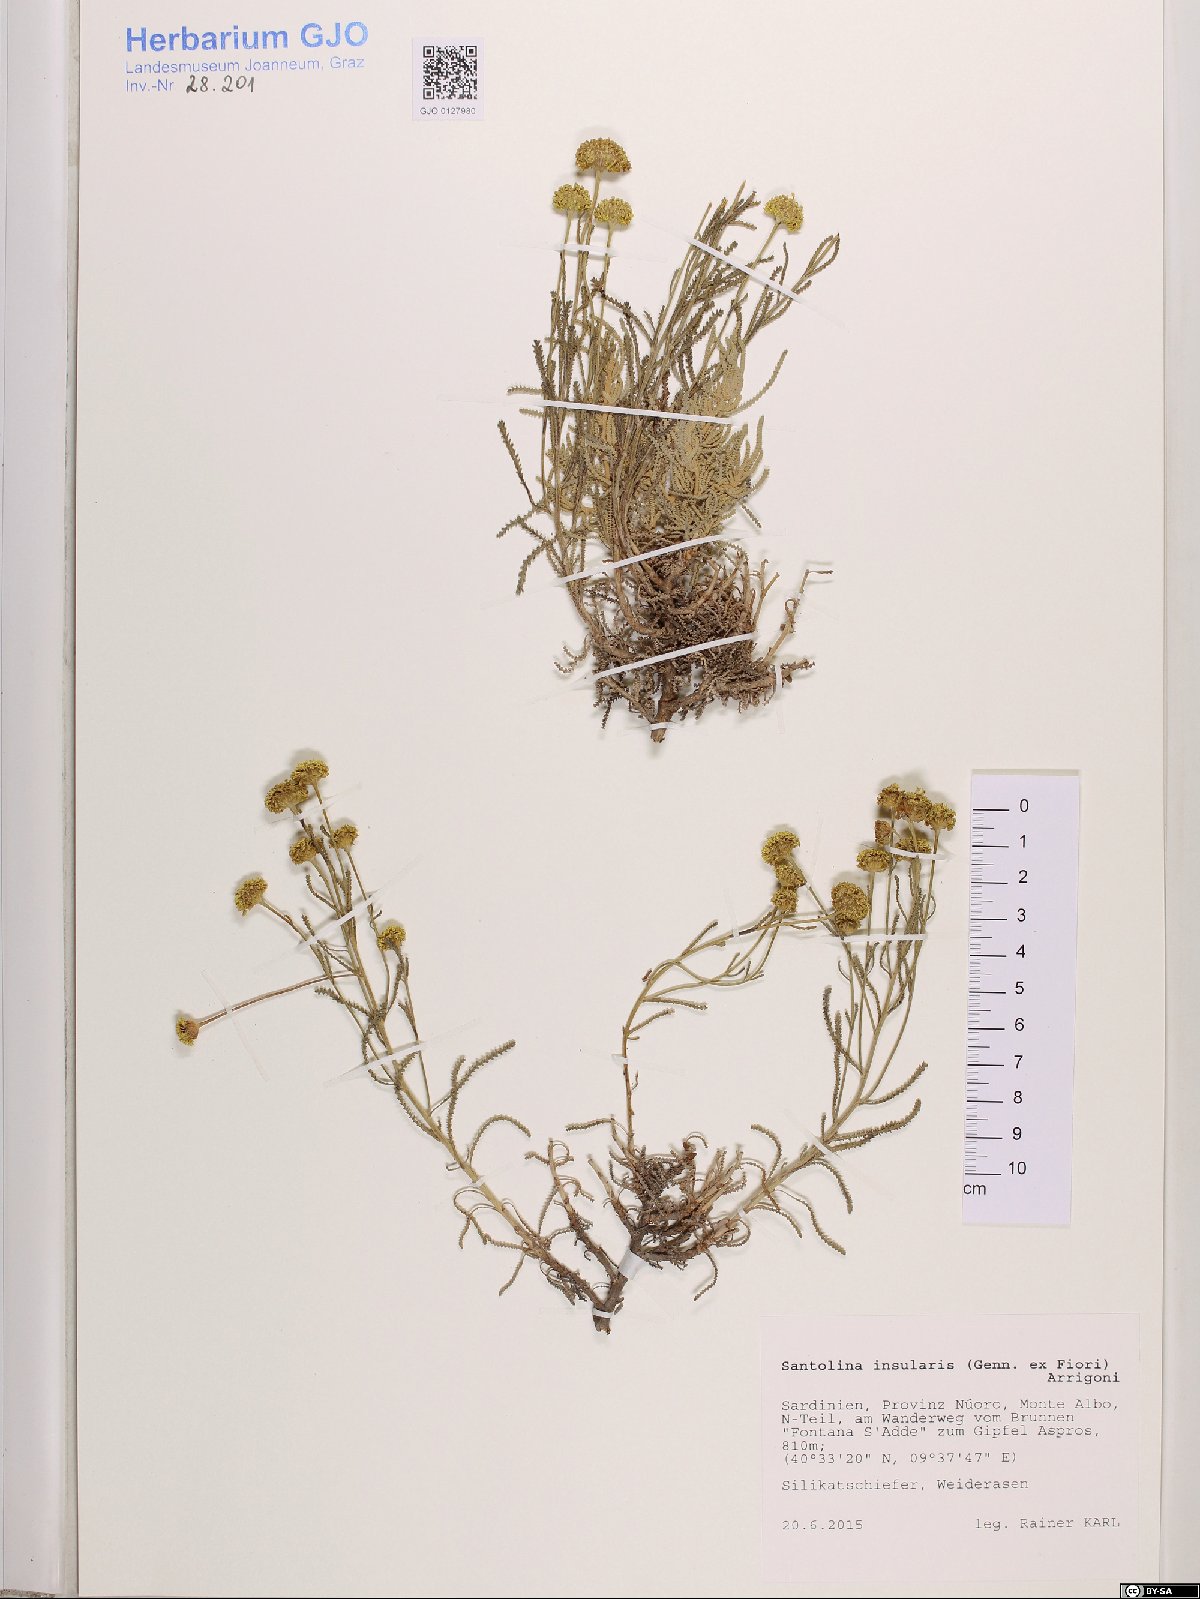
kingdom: Plantae
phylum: Tracheophyta
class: Magnoliopsida
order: Asterales
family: Asteraceae
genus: Santolina
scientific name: Santolina insularis
